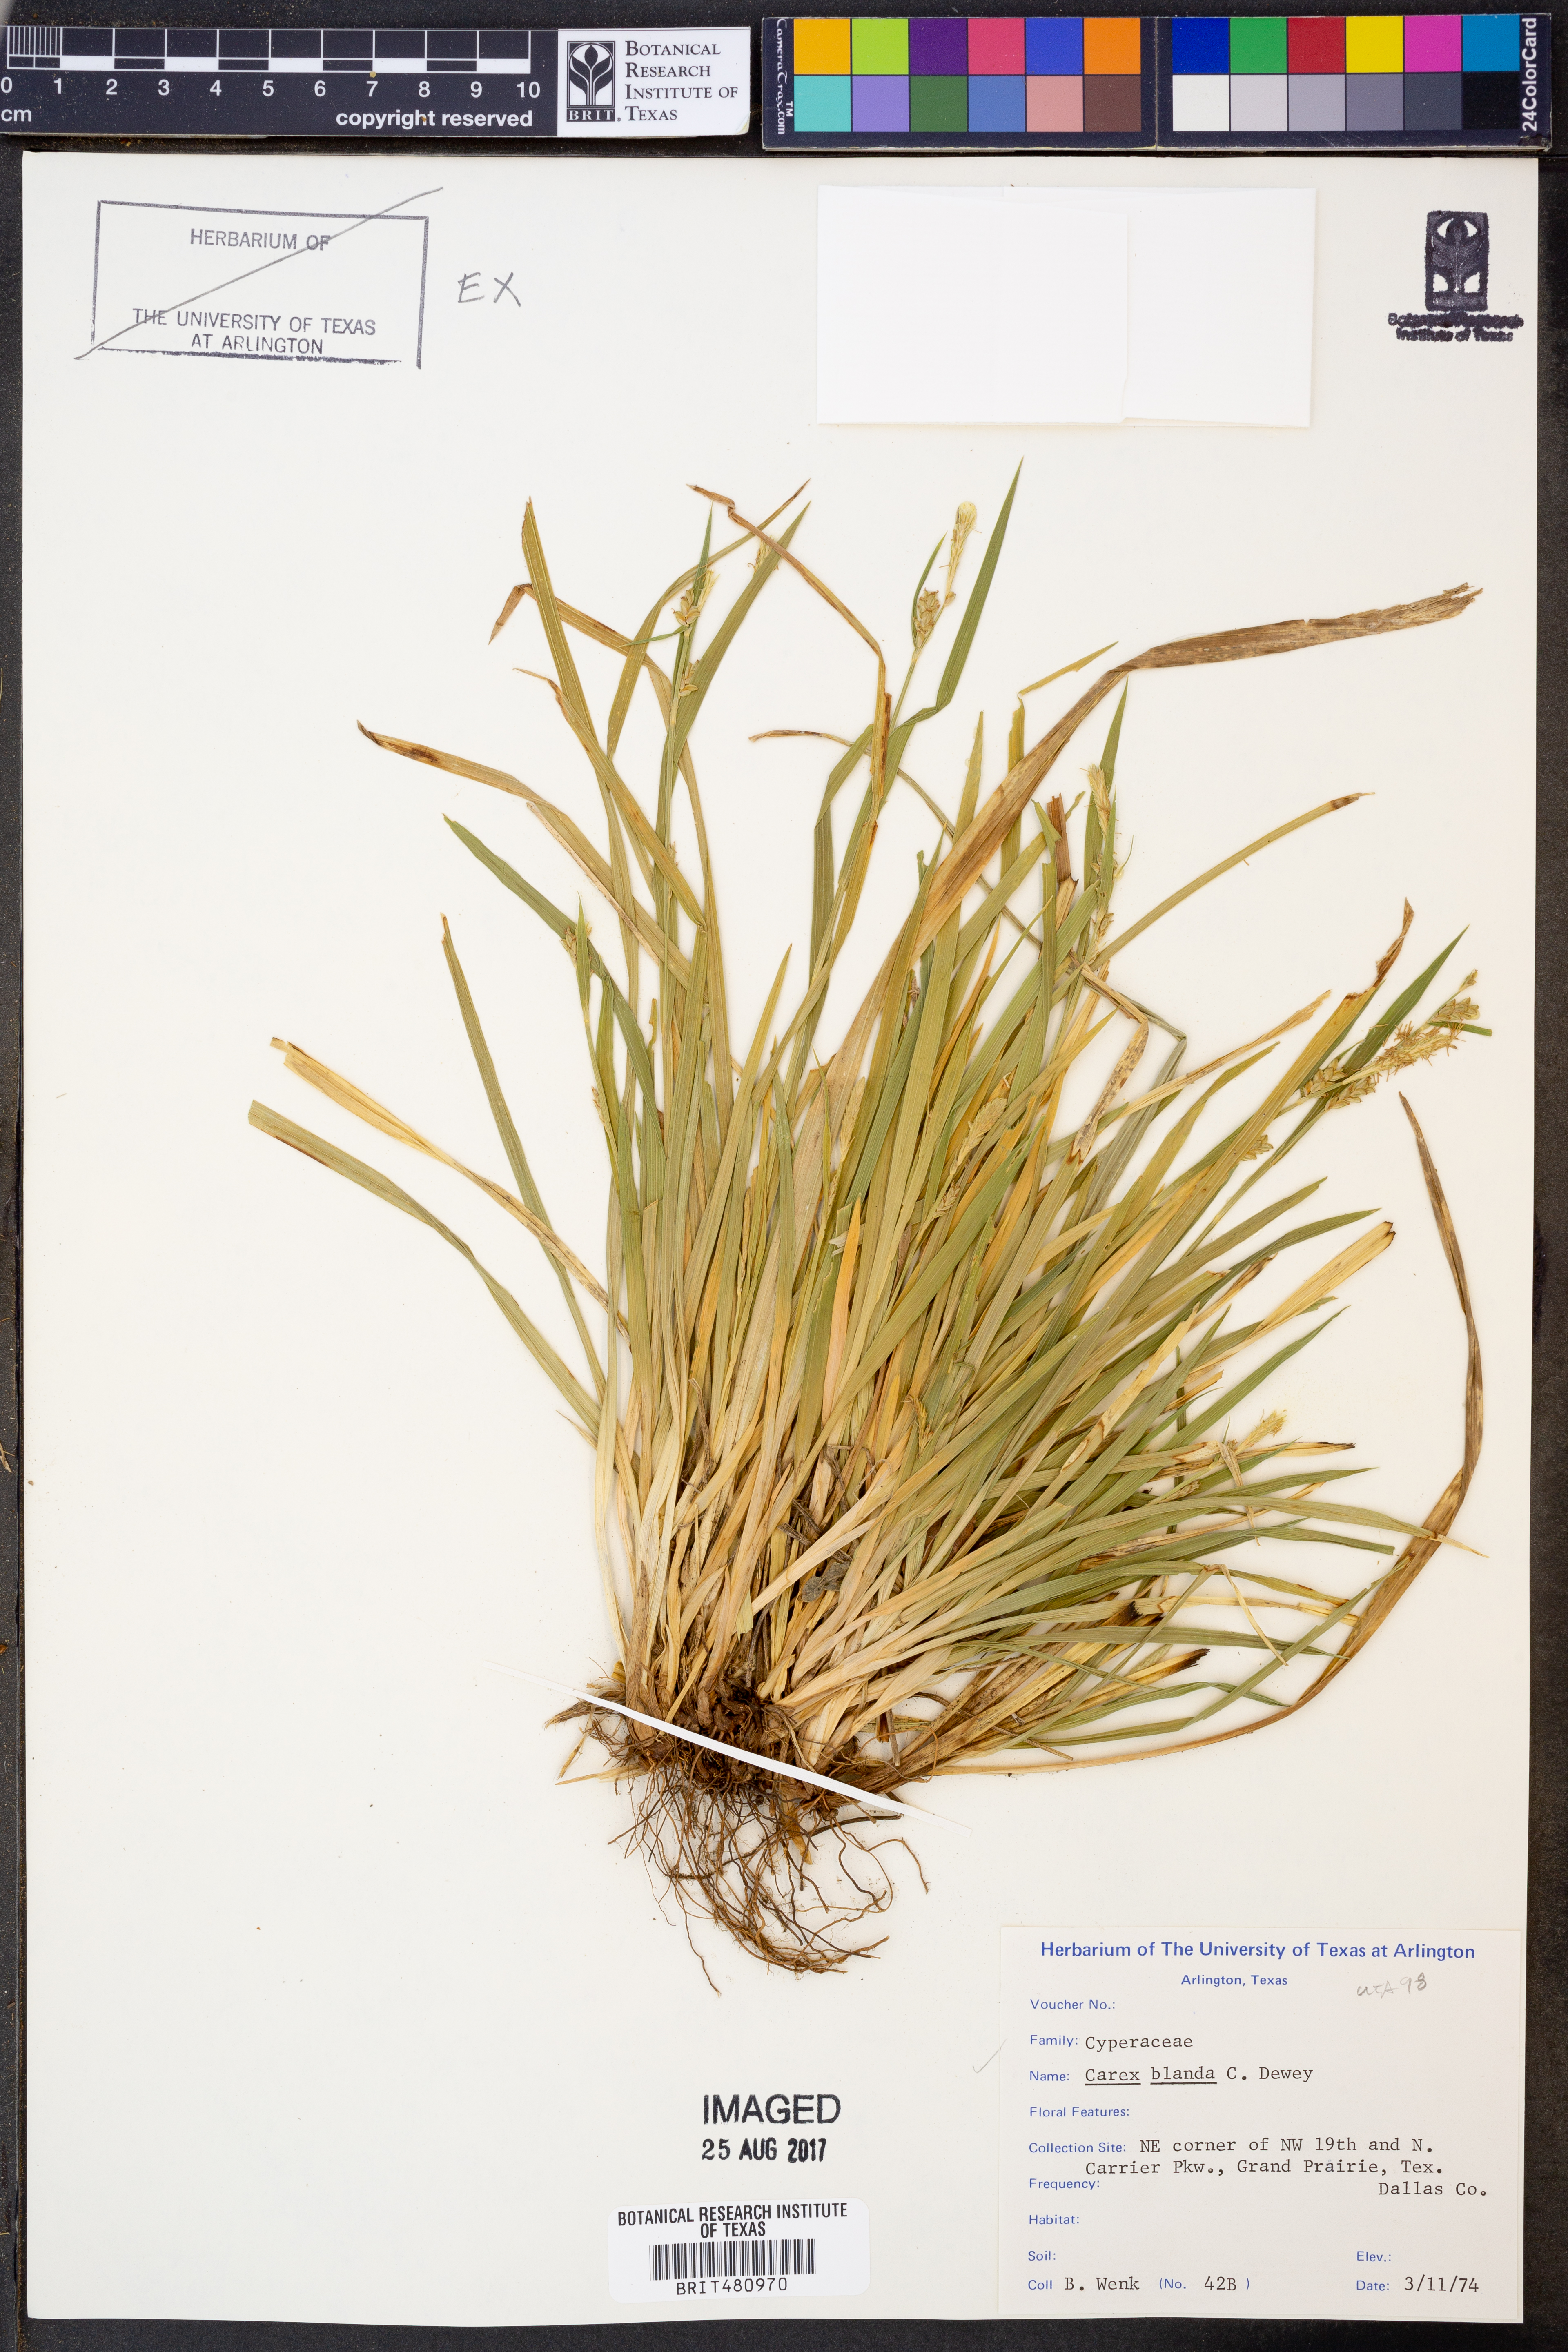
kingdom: Plantae
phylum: Tracheophyta
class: Liliopsida
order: Poales
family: Cyperaceae
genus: Carex
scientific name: Carex blanda
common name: Bland sedge
